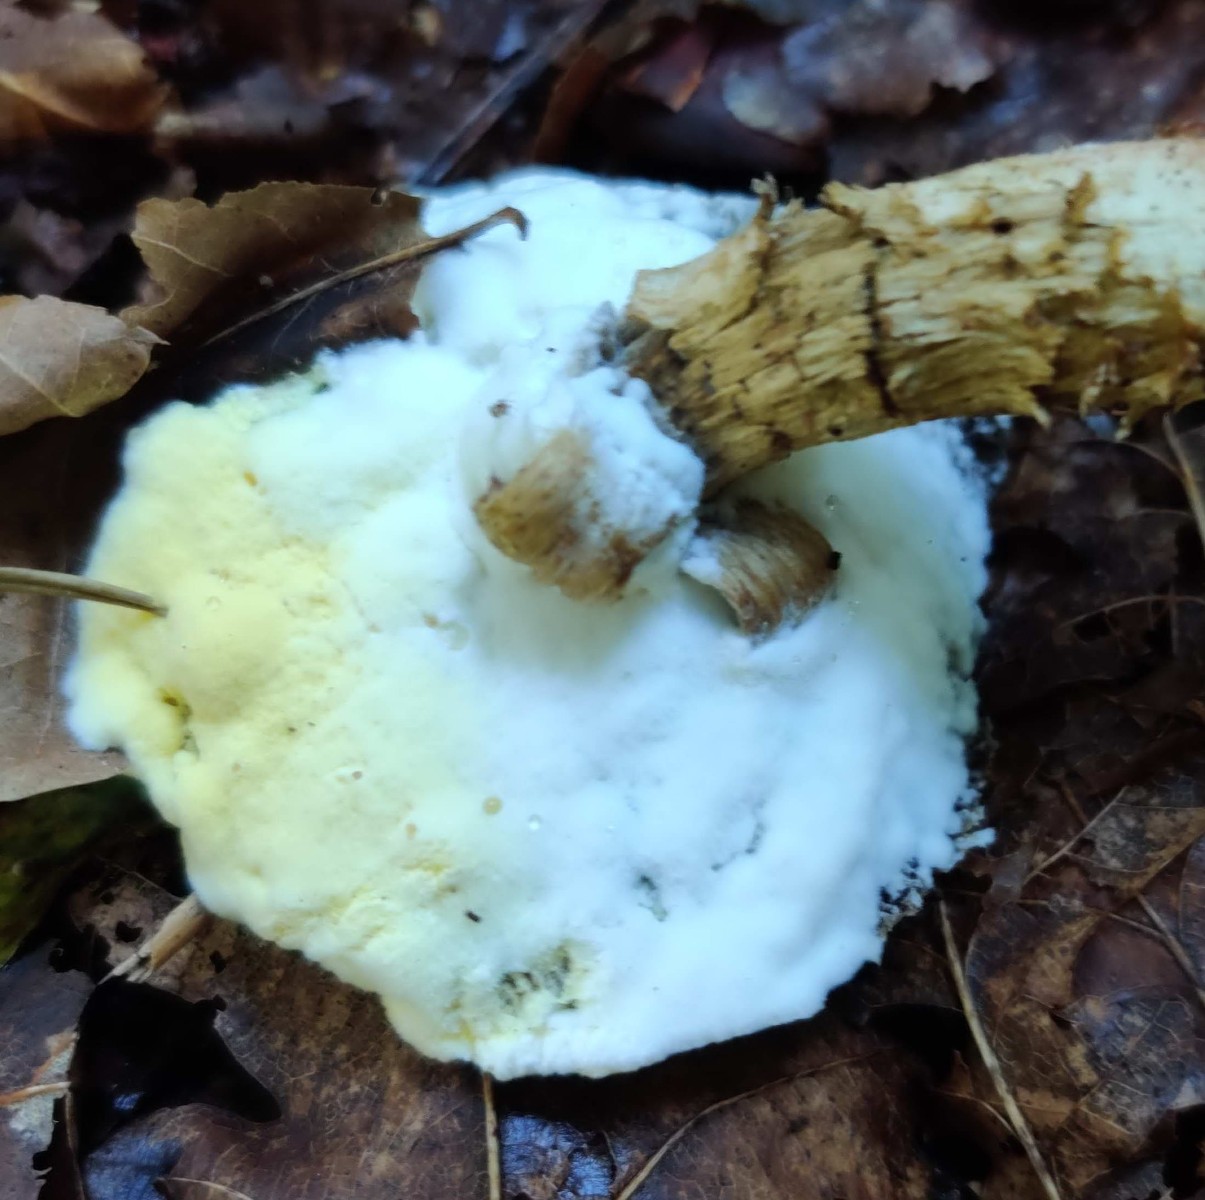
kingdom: Fungi
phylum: Ascomycota
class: Sordariomycetes
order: Hypocreales
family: Hypocreaceae
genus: Hypomyces
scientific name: Hypomyces microspermus
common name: dværgrørhat-snylteskorpe
